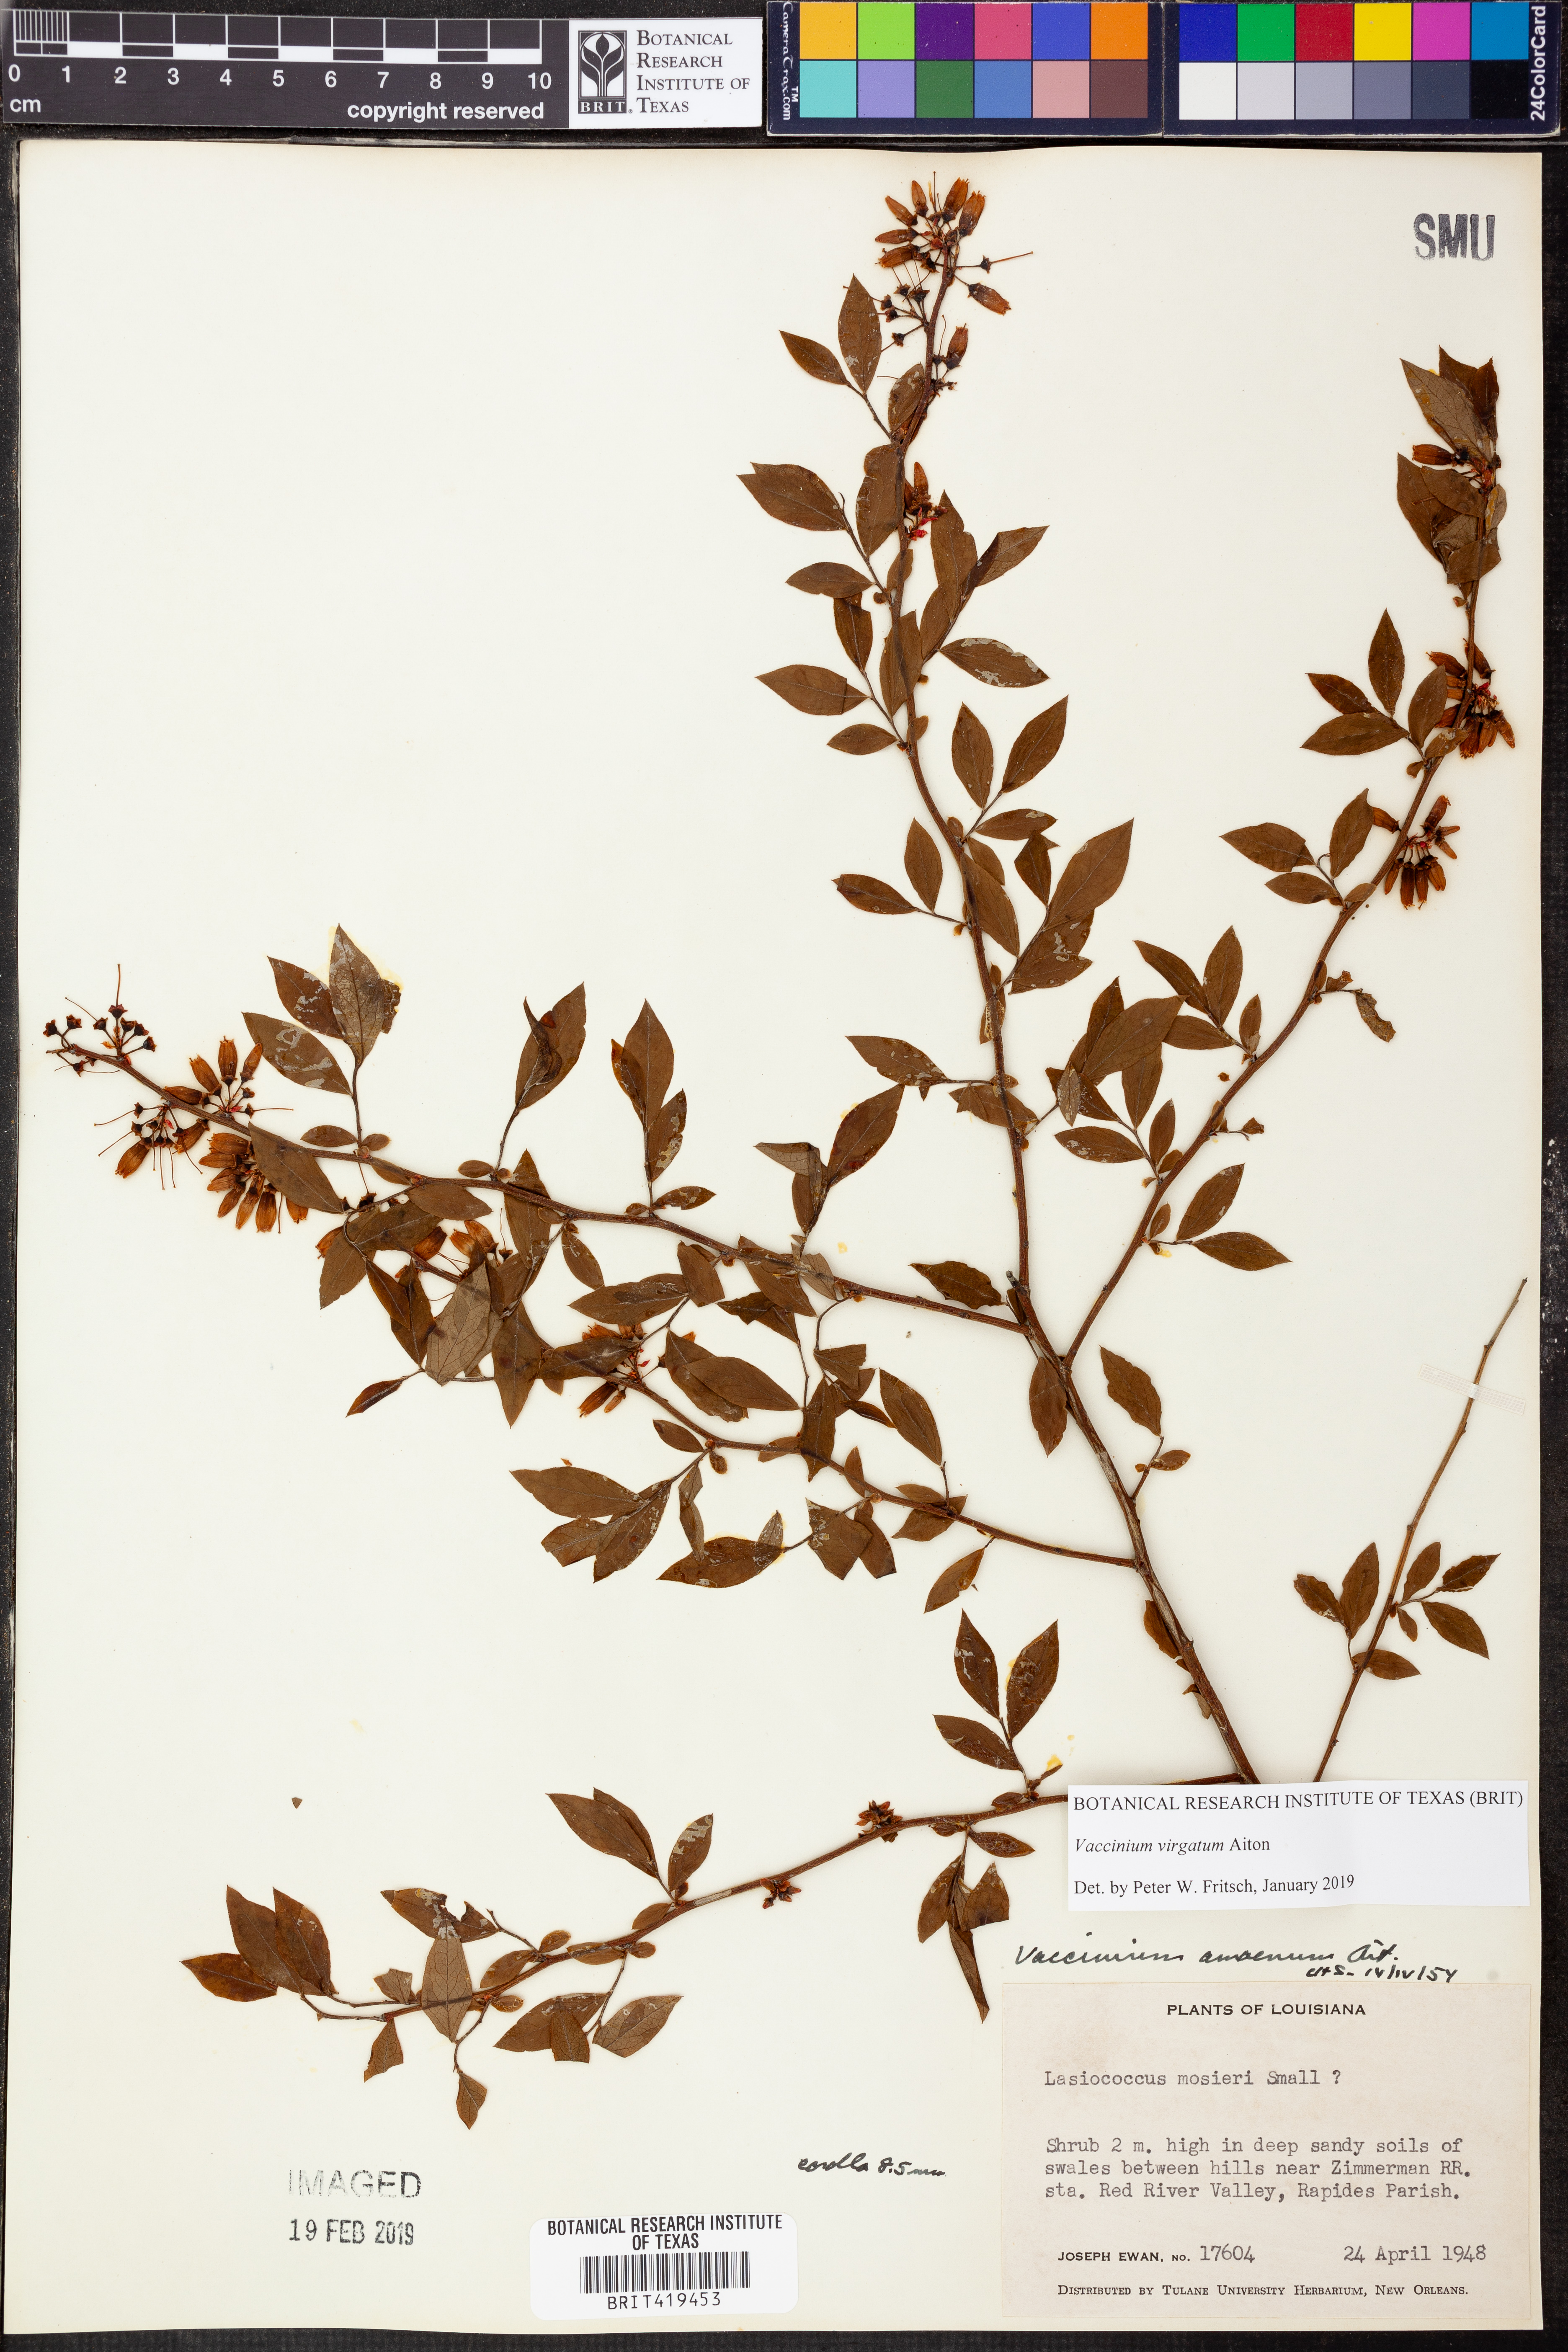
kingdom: Plantae
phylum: Tracheophyta
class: Magnoliopsida
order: Ericales
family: Ericaceae
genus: Vaccinium
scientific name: Vaccinium corymbosum
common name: Blueberry
